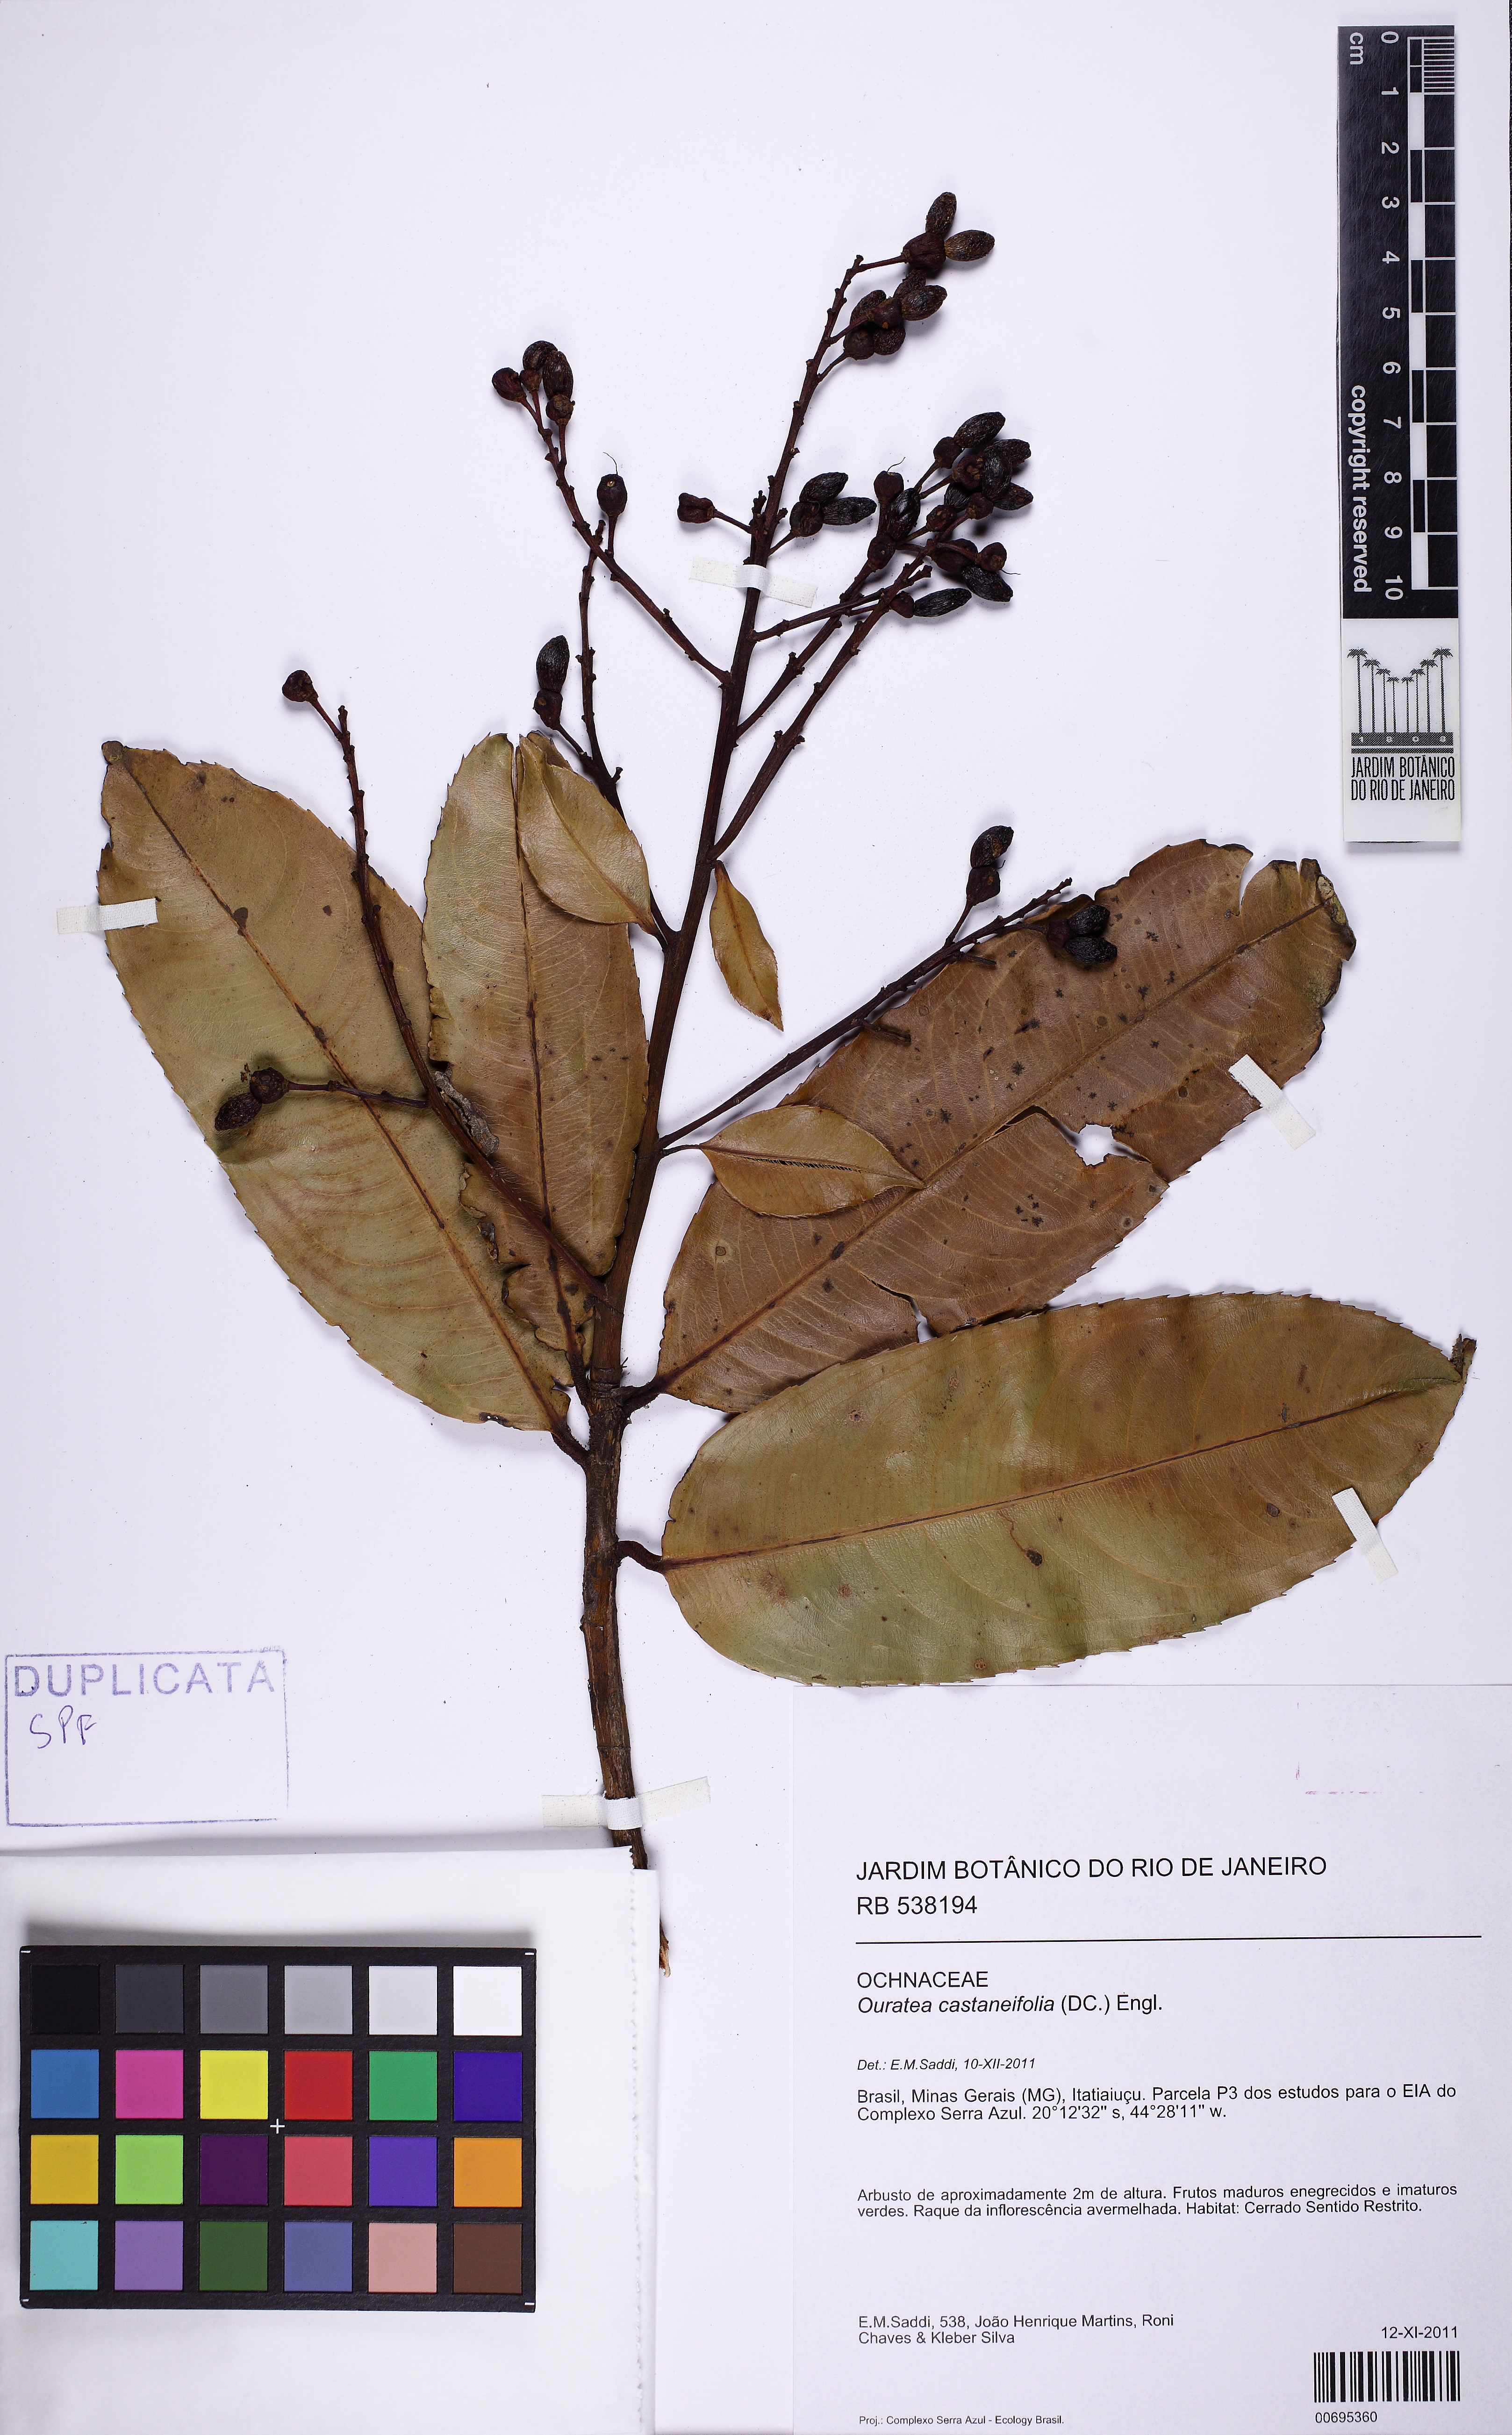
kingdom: Plantae
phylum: Tracheophyta
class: Magnoliopsida
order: Malpighiales
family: Ochnaceae
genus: Ouratea
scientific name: Ouratea castaneifolia
